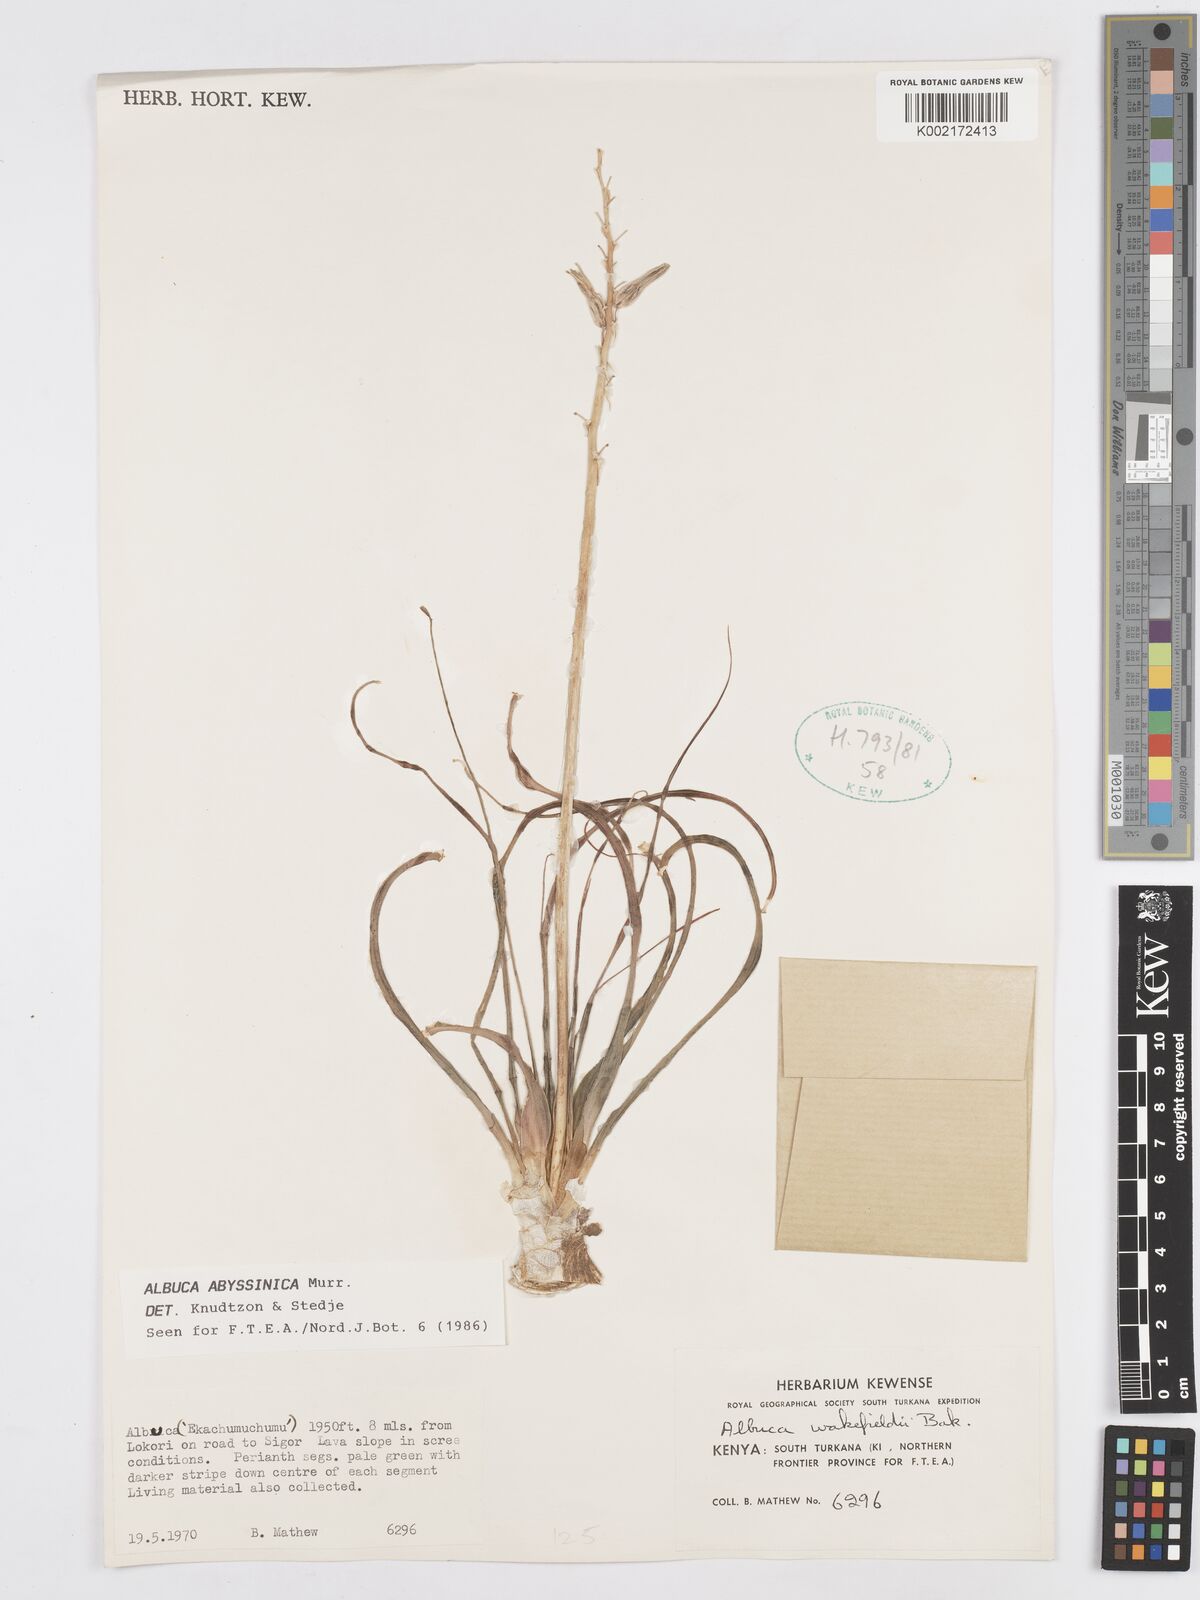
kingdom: Plantae
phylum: Tracheophyta
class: Liliopsida
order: Asparagales
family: Asparagaceae
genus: Albuca
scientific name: Albuca abyssinica
